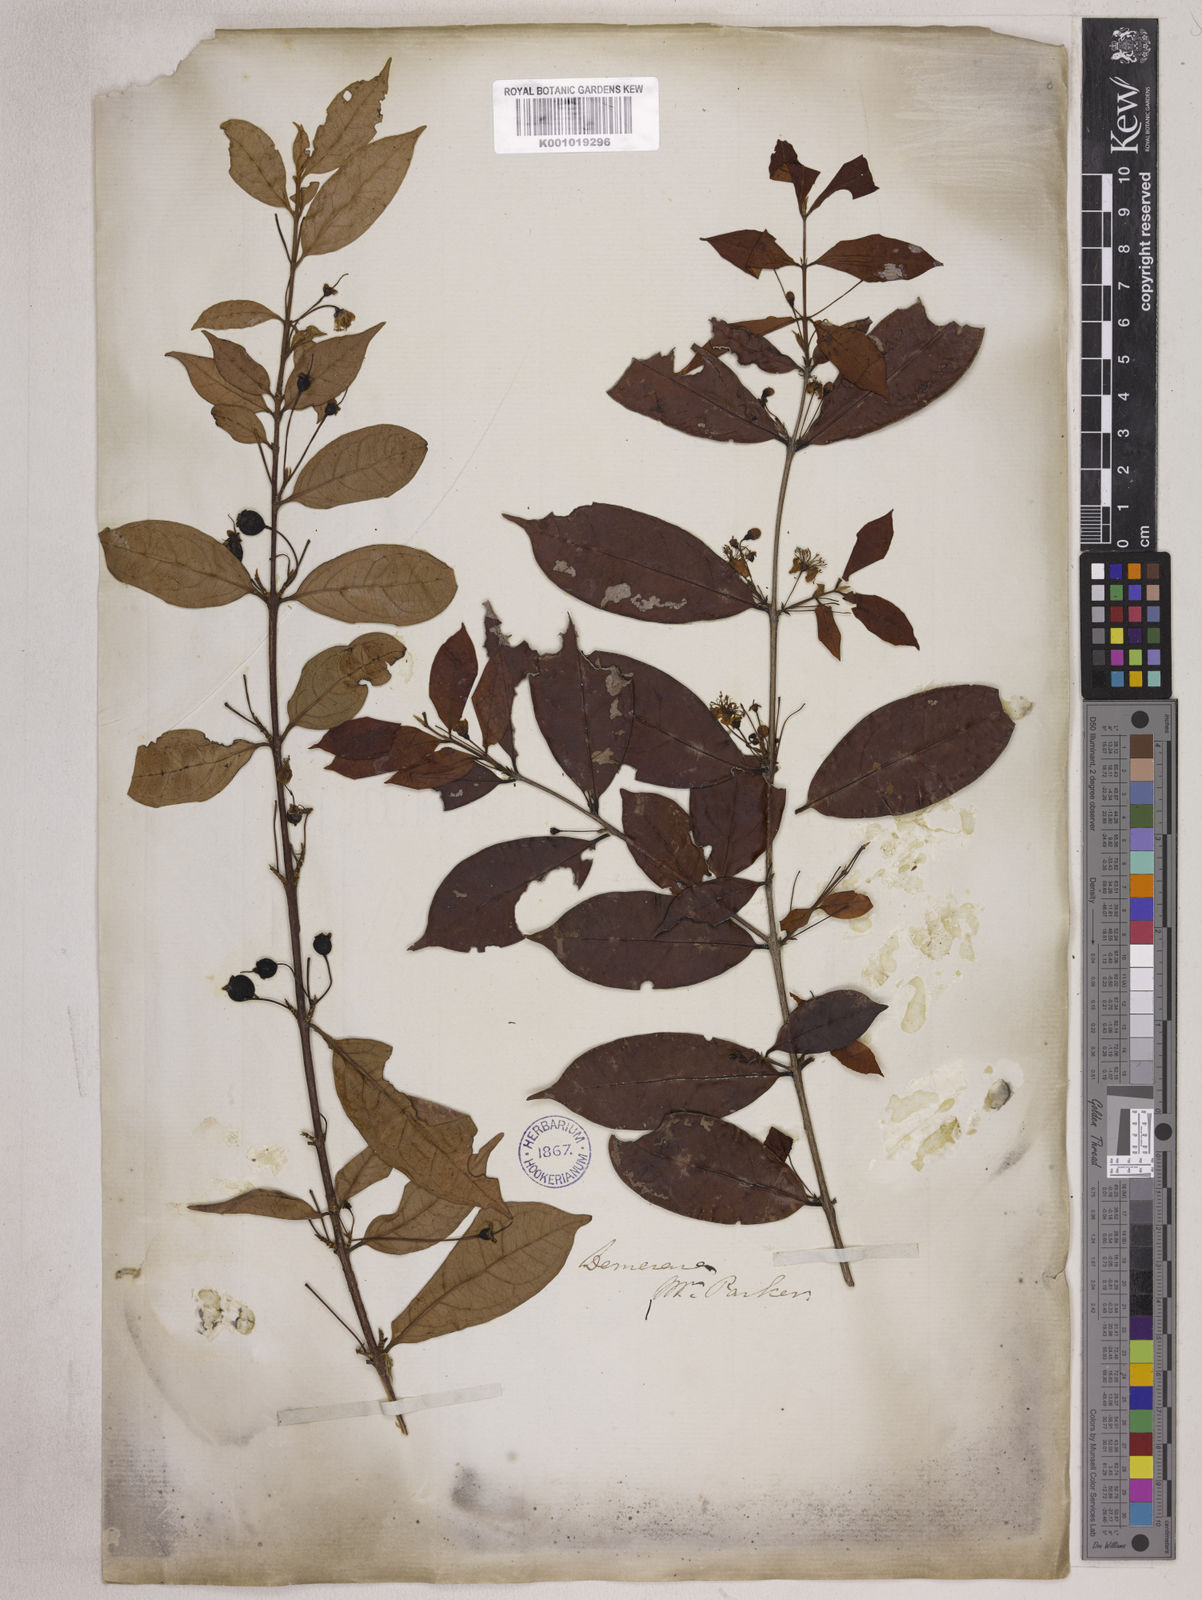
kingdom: Plantae
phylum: Tracheophyta
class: Magnoliopsida
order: Myrtales
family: Myrtaceae
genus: Eugenia
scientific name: Eugenia patrisii
